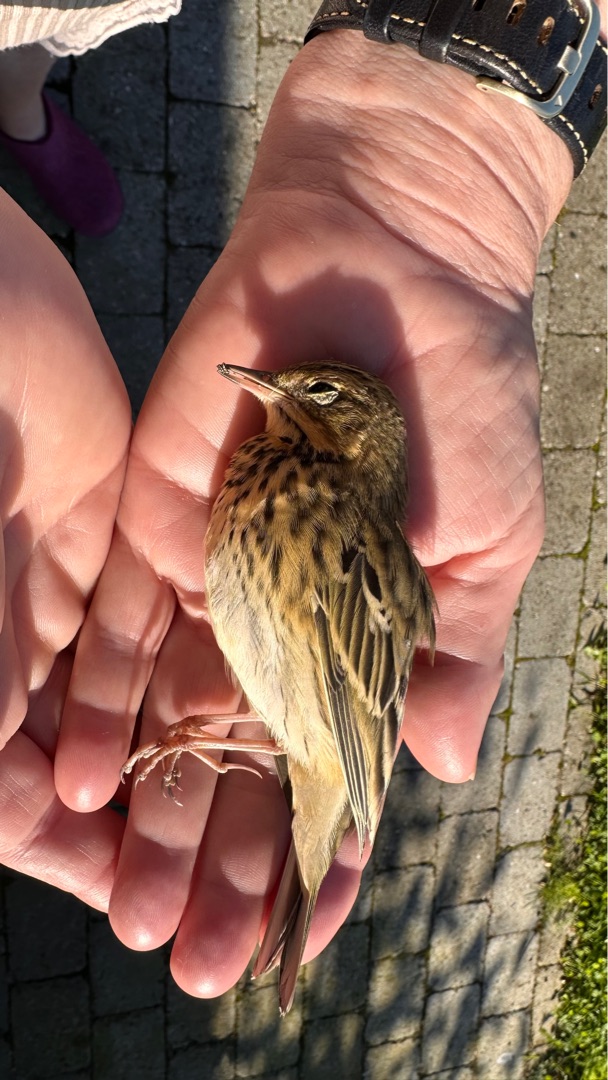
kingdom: Animalia
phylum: Chordata
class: Aves
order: Passeriformes
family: Motacillidae
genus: Anthus
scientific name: Anthus trivialis
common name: Skovpiber
